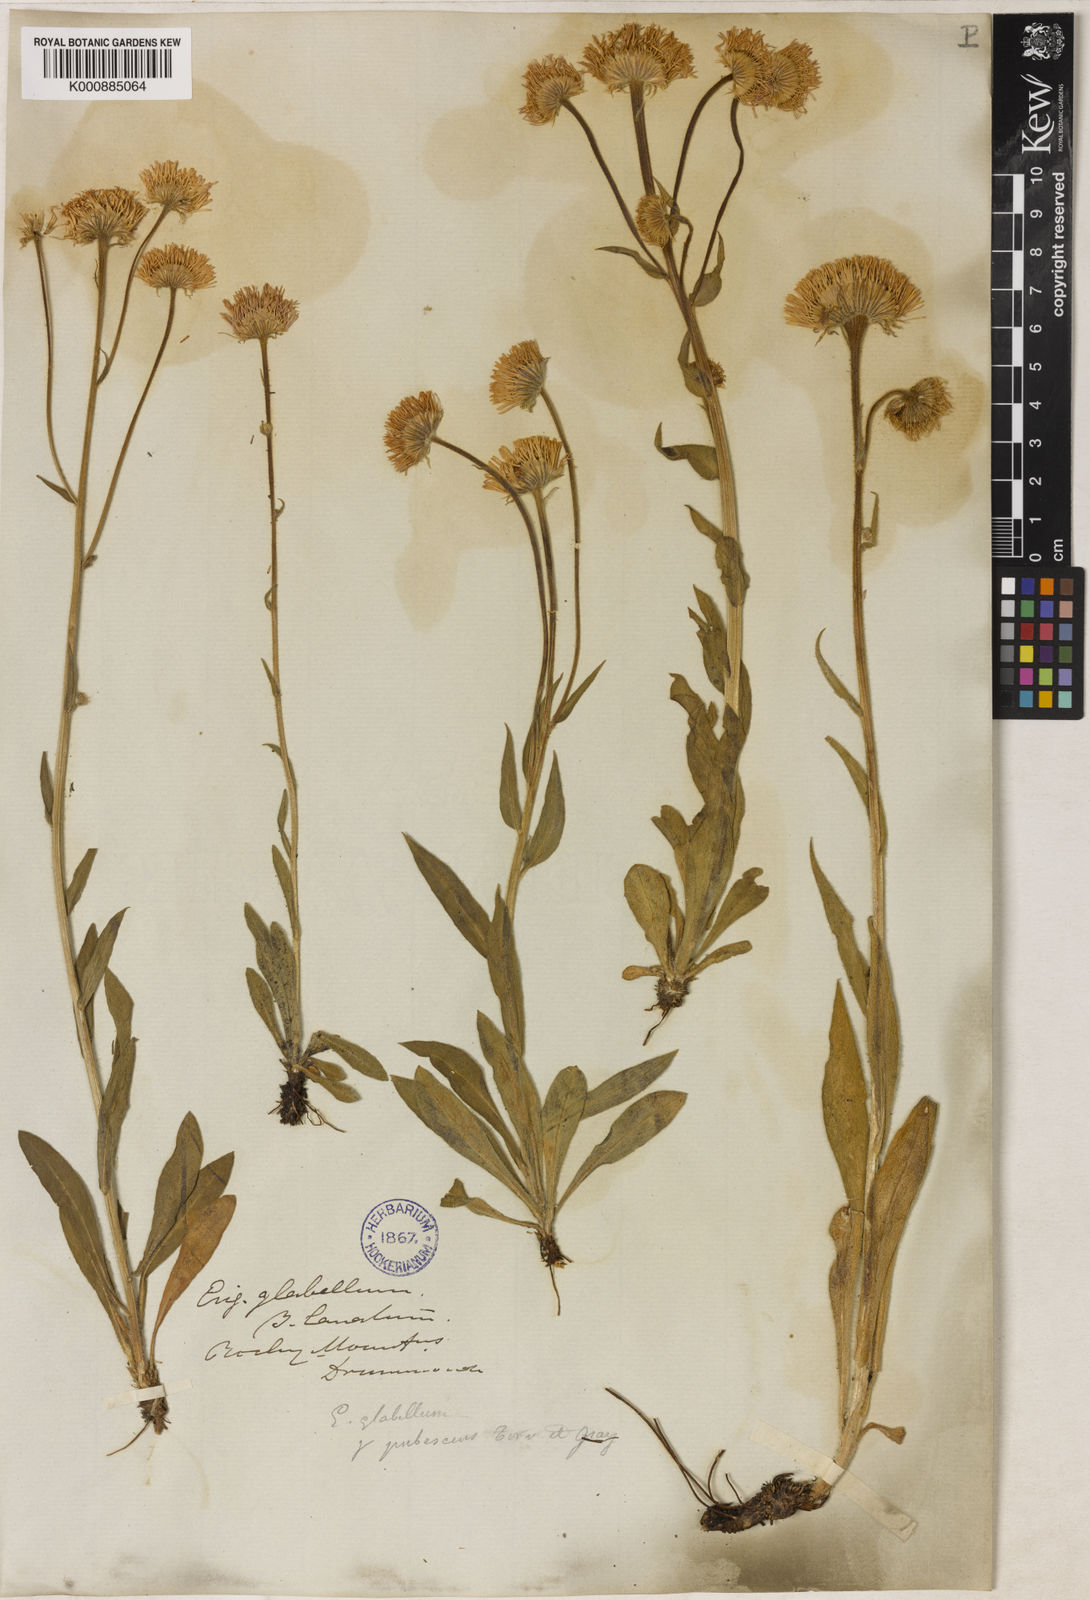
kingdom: Plantae
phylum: Tracheophyta
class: Magnoliopsida
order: Asterales
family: Asteraceae
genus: Erigeron
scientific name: Erigeron glabellus
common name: Smooth fleabane
